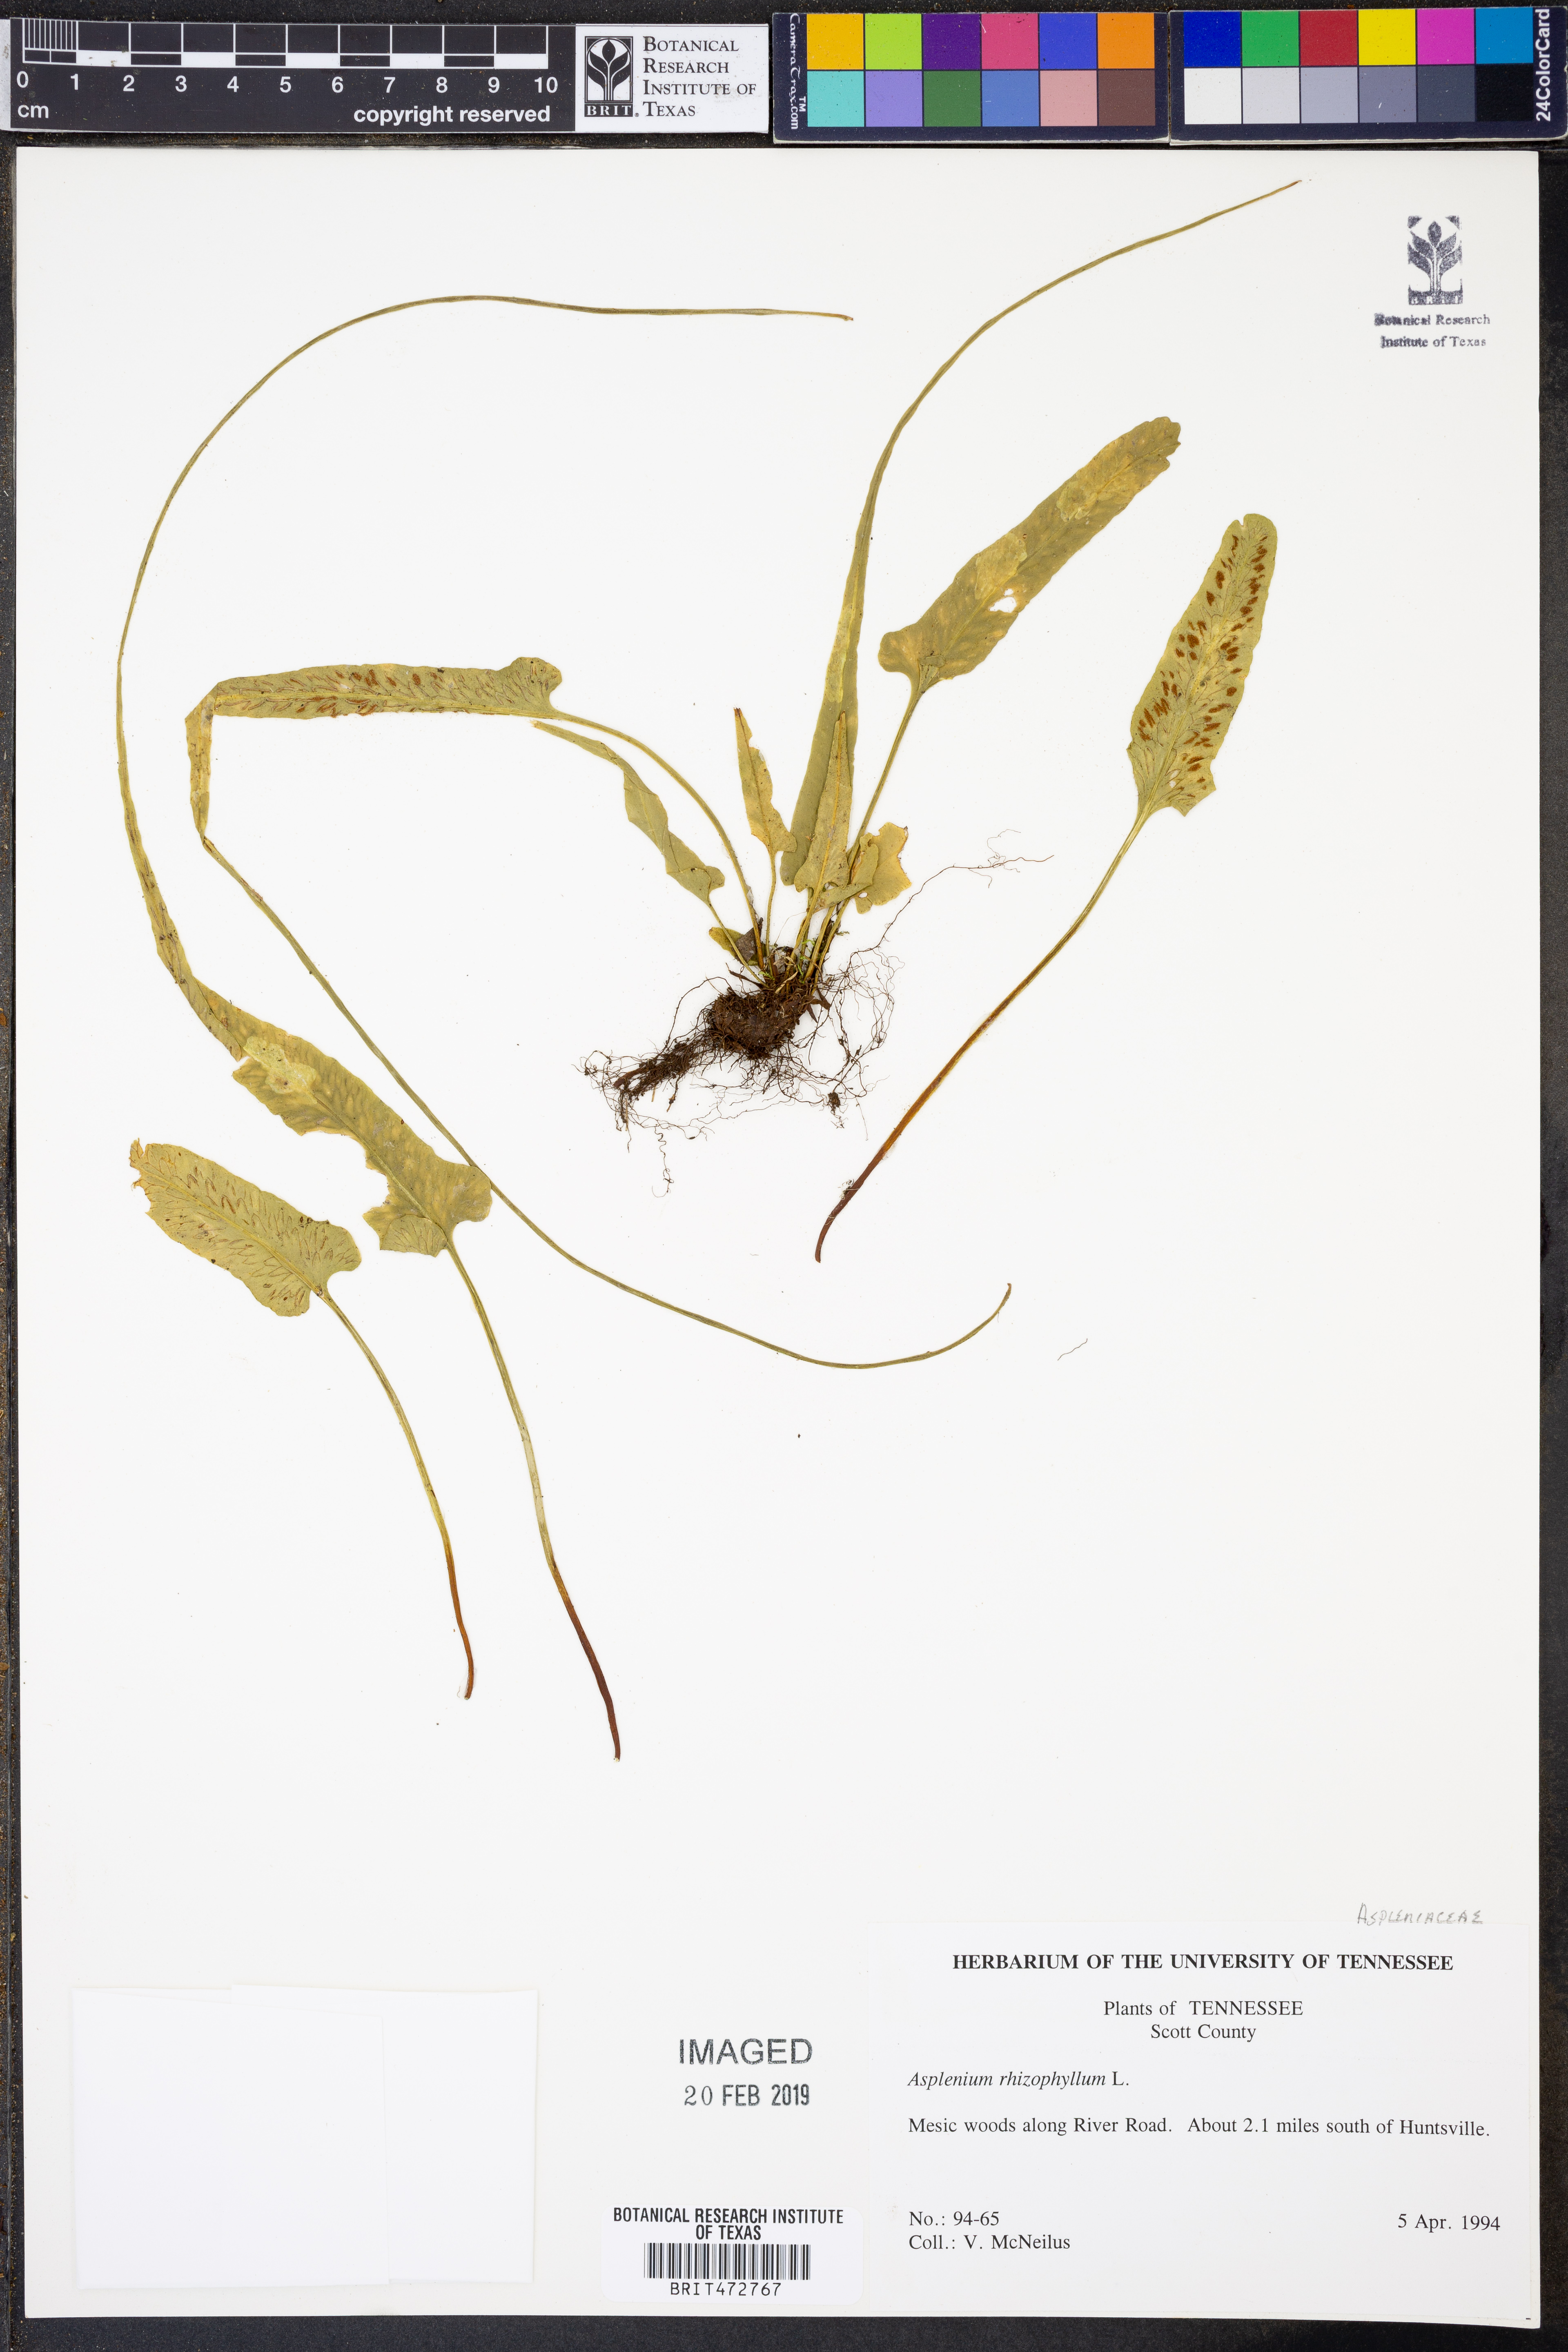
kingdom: Plantae
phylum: Tracheophyta
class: Polypodiopsida
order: Polypodiales
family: Aspleniaceae
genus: Asplenium
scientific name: Asplenium rhizophyllum
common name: Walking fern
